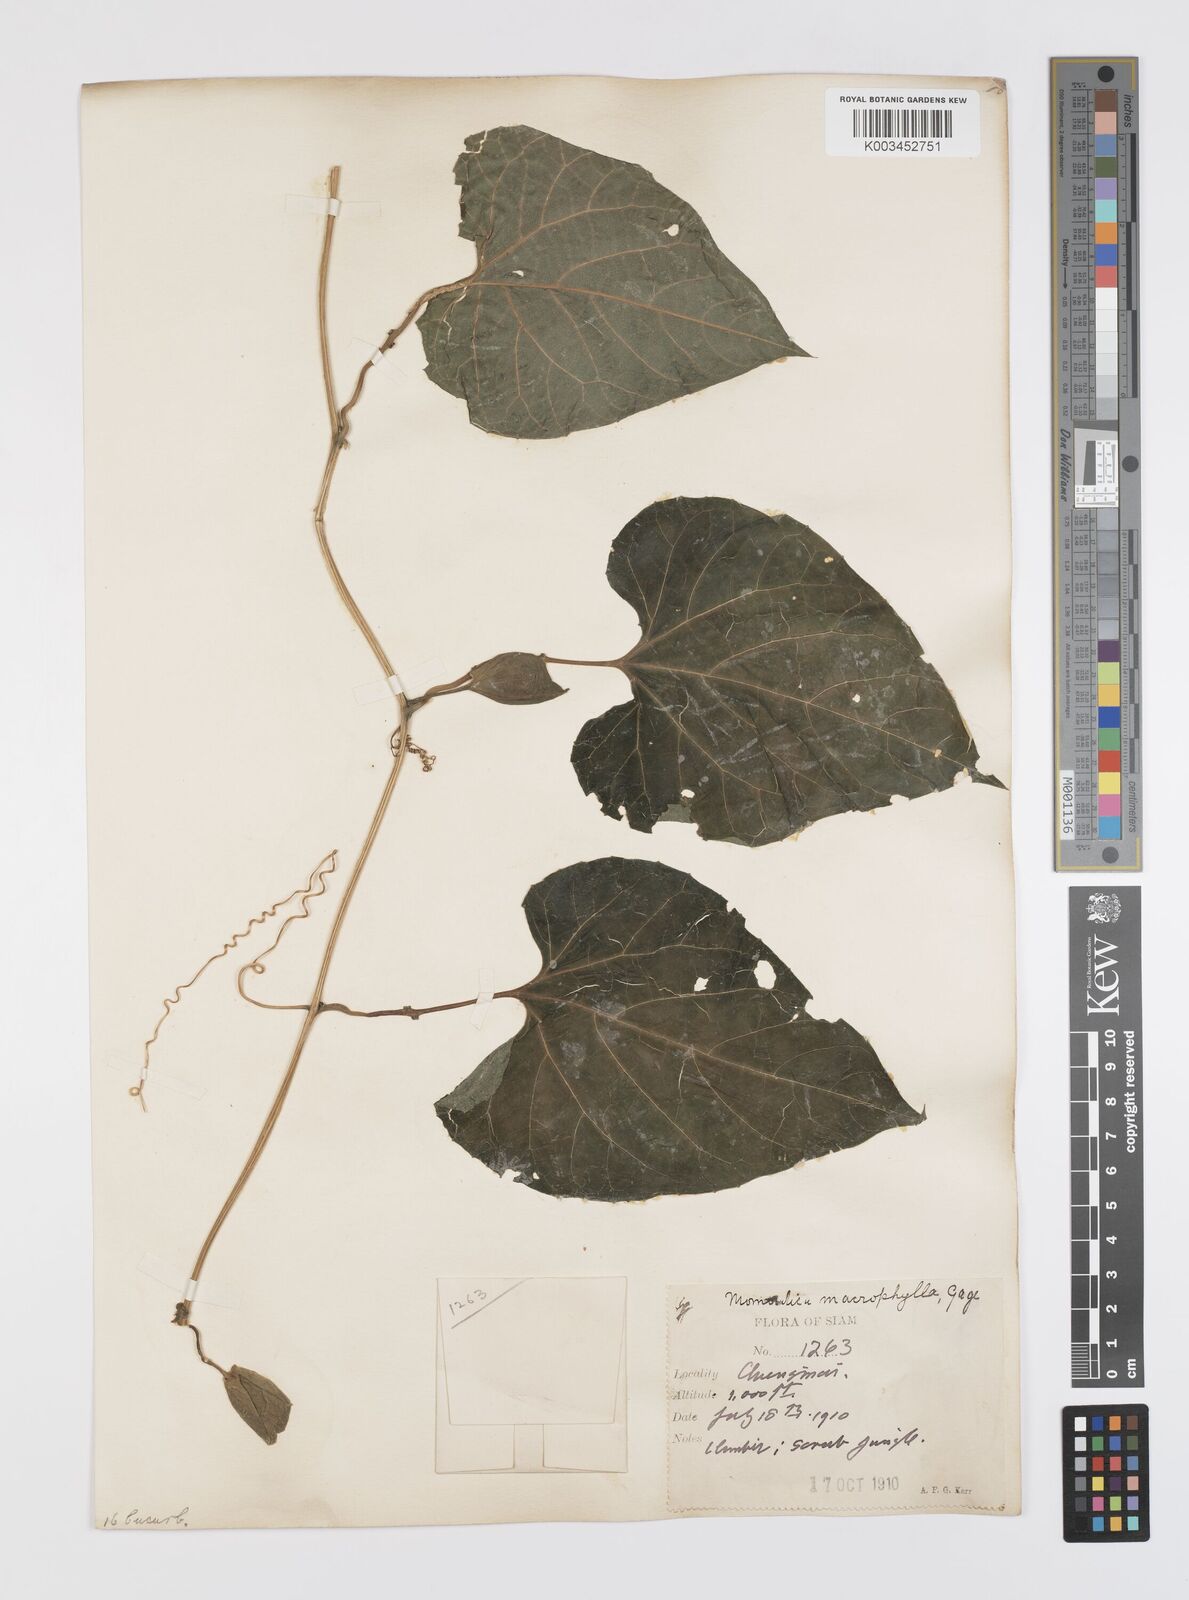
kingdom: Plantae
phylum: Tracheophyta
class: Magnoliopsida
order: Cucurbitales
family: Cucurbitaceae
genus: Momordica
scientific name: Momordica cochinchinensis
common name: Chinese bitter-cucumber
